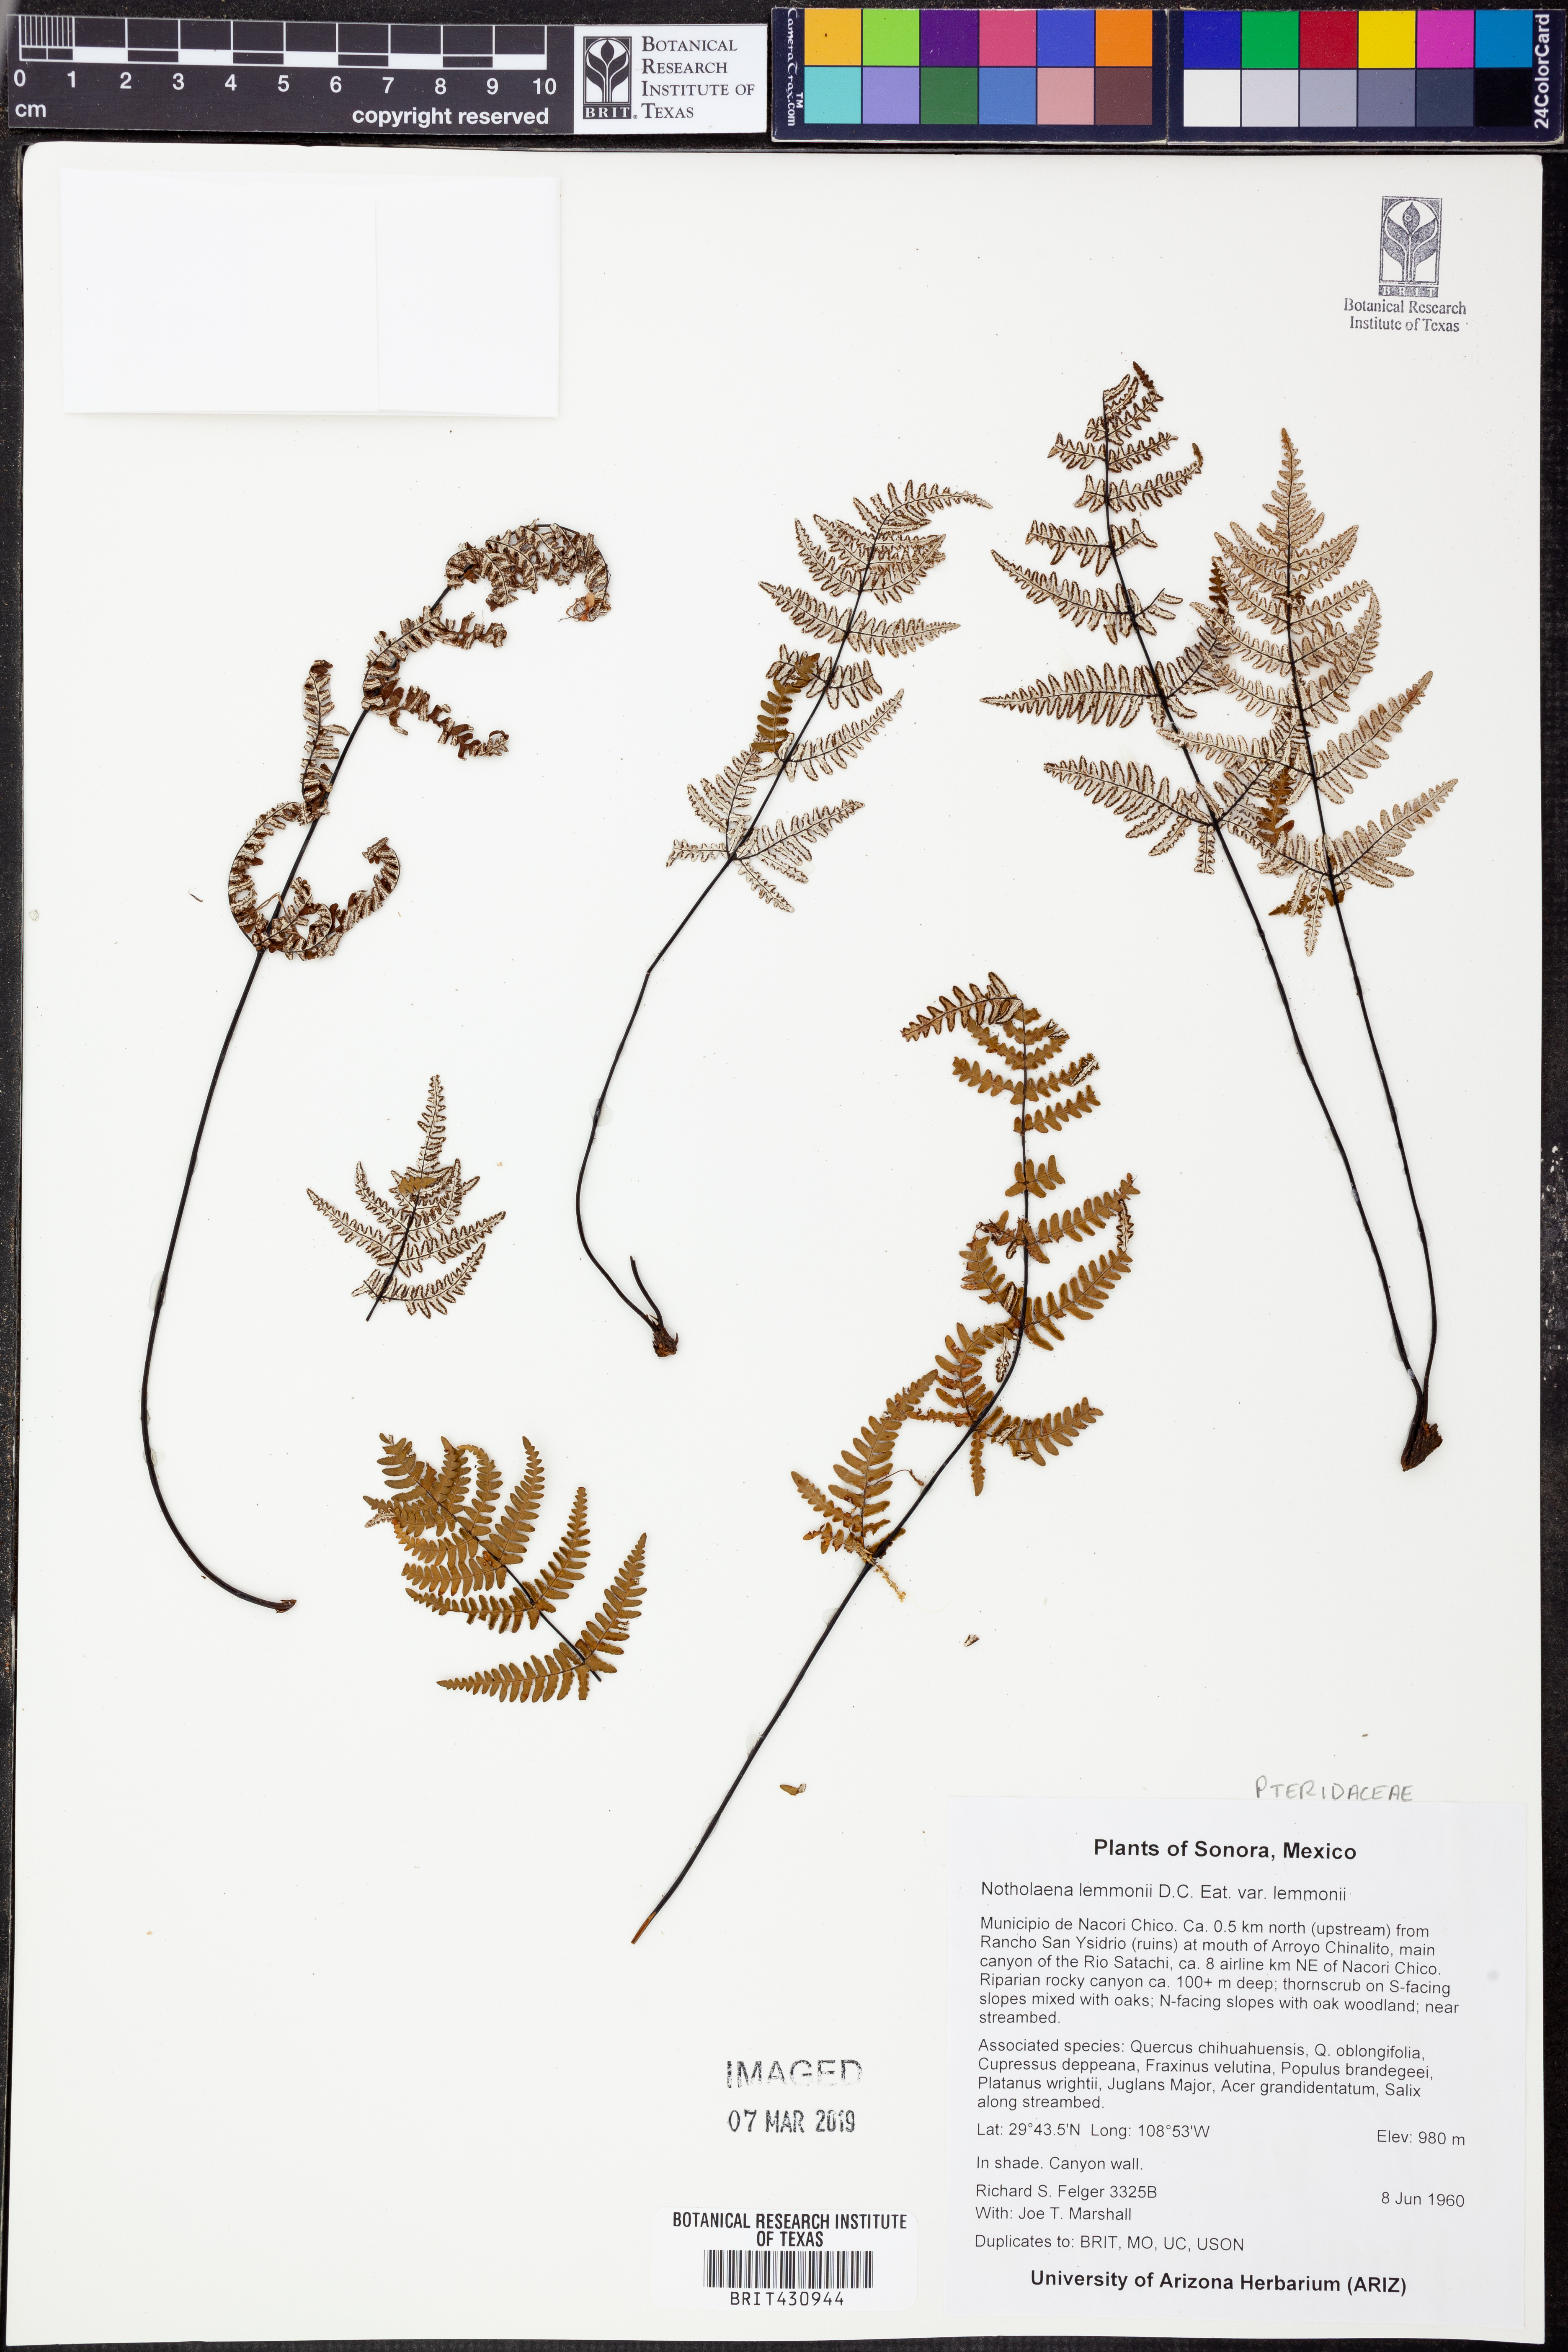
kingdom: Plantae
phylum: Tracheophyta
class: Polypodiopsida
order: Polypodiales
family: Pteridaceae
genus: Notholaena
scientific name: Notholaena lemmonii
